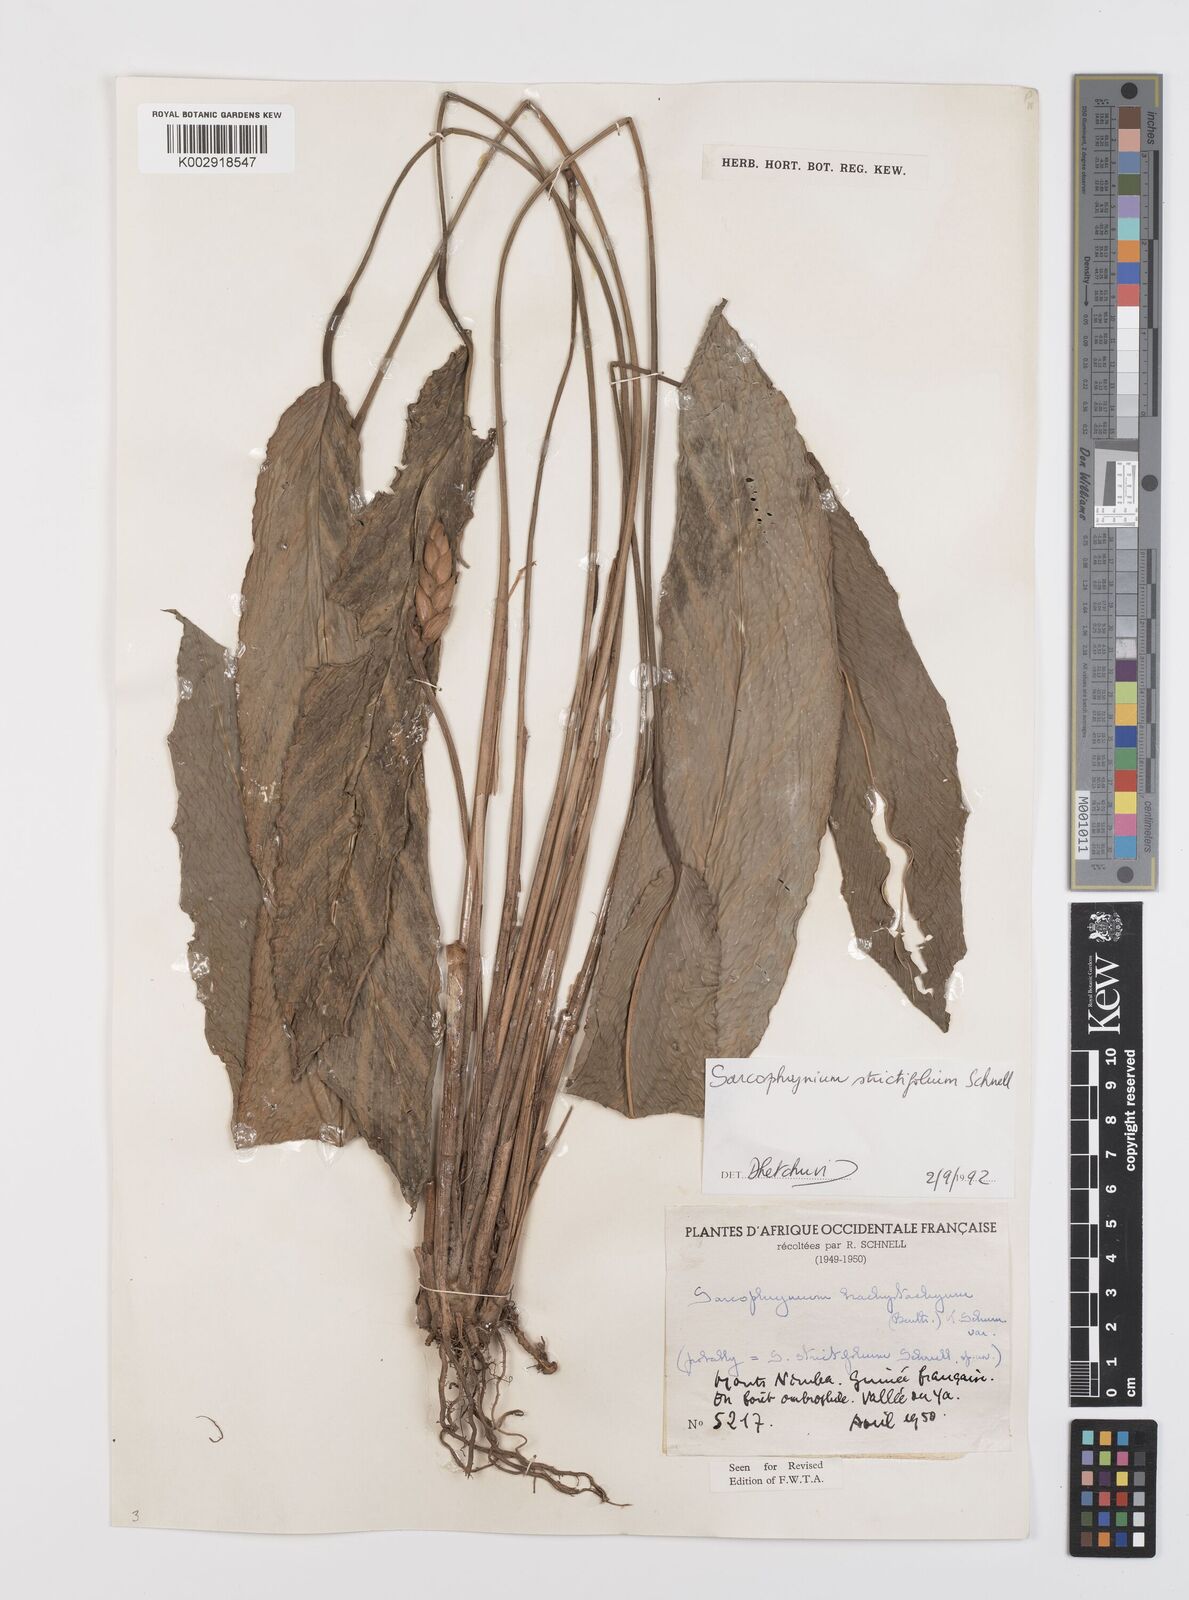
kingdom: Plantae
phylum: Tracheophyta
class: Liliopsida
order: Zingiberales
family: Marantaceae
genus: Sarcophrynium
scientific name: Sarcophrynium brachystachyum
